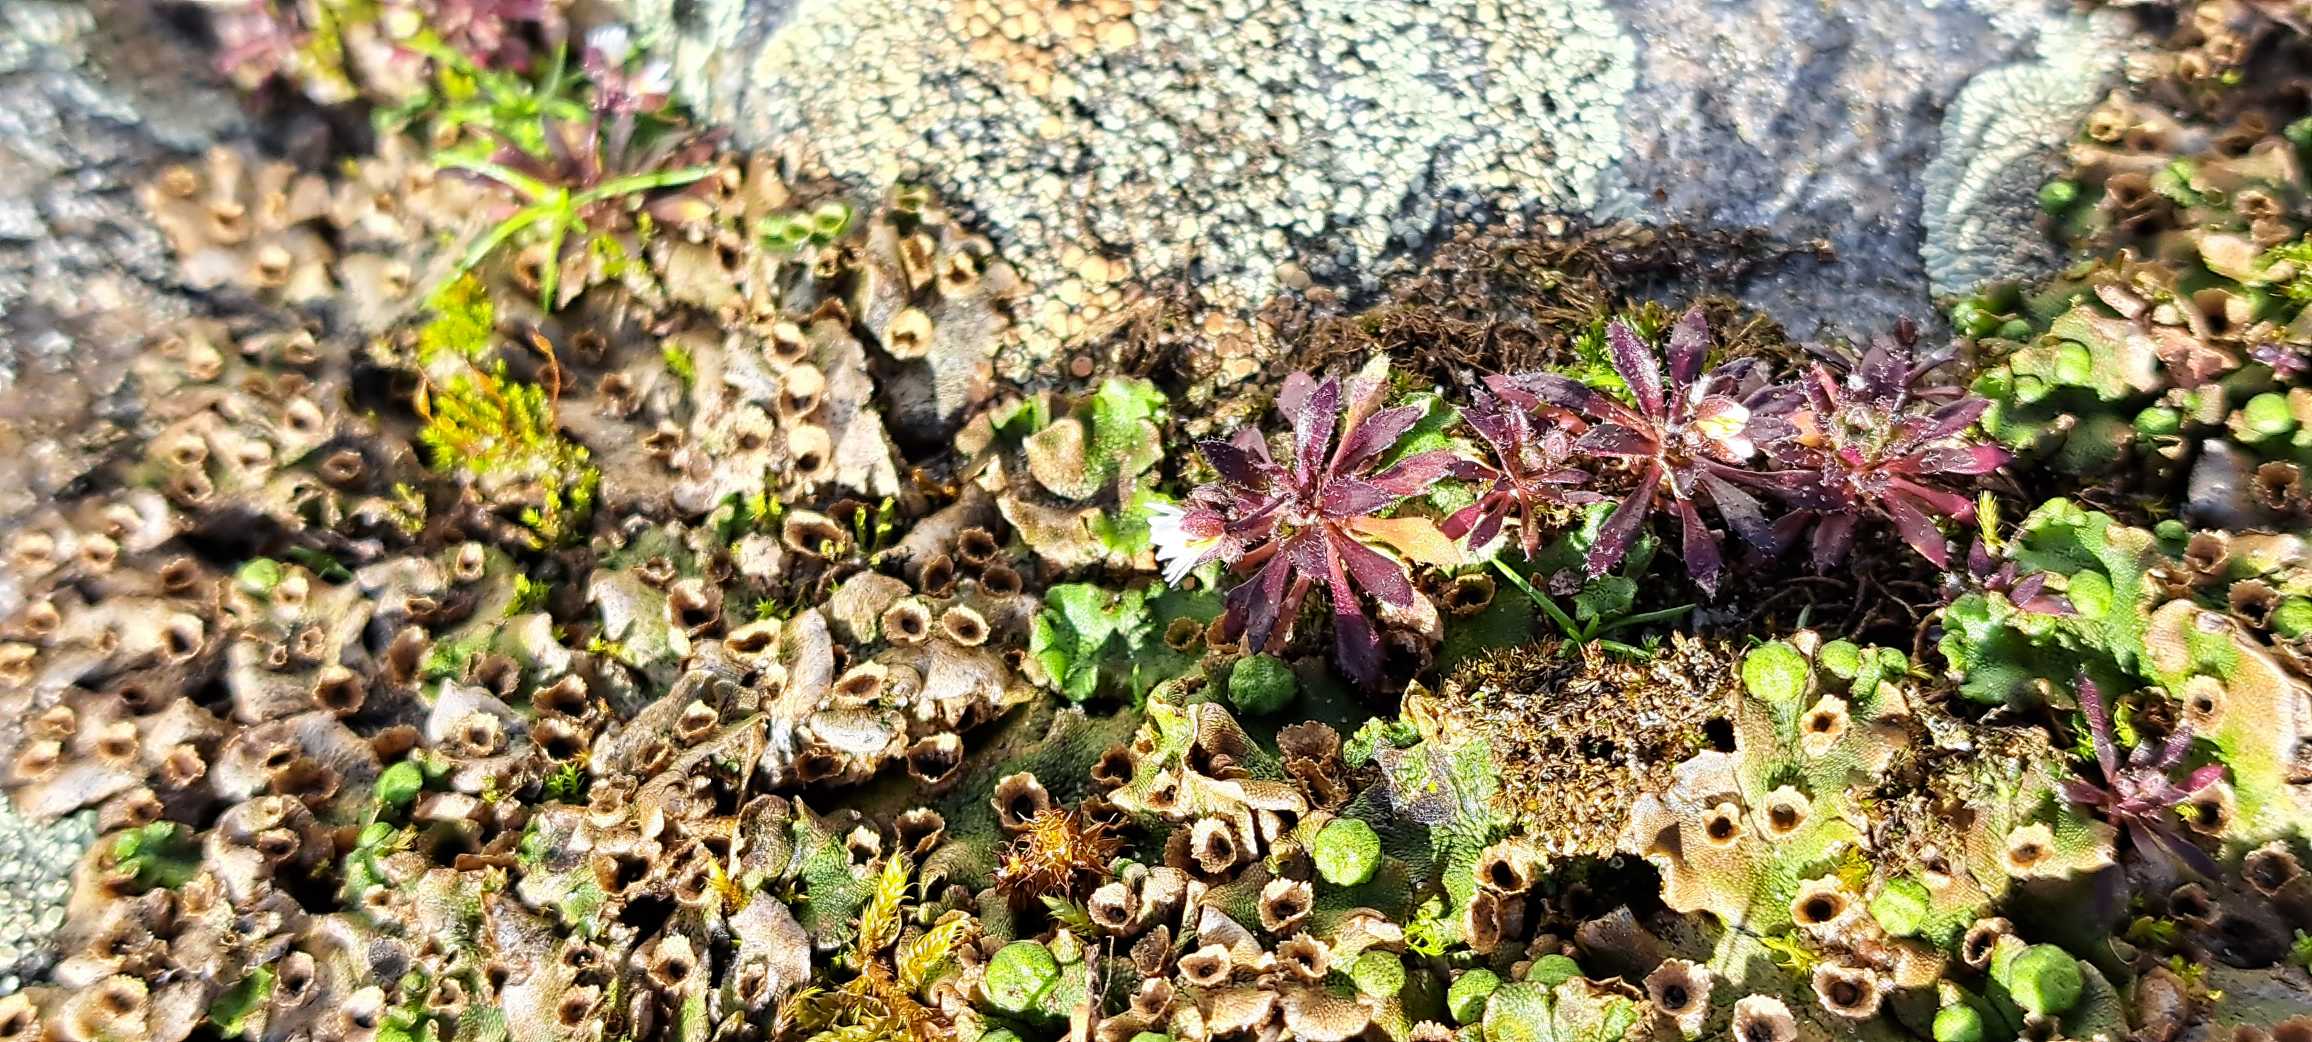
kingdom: Plantae
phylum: Tracheophyta
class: Magnoliopsida
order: Brassicales
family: Brassicaceae
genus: Draba
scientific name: Draba verna
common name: Vår-gæslingeblomst
